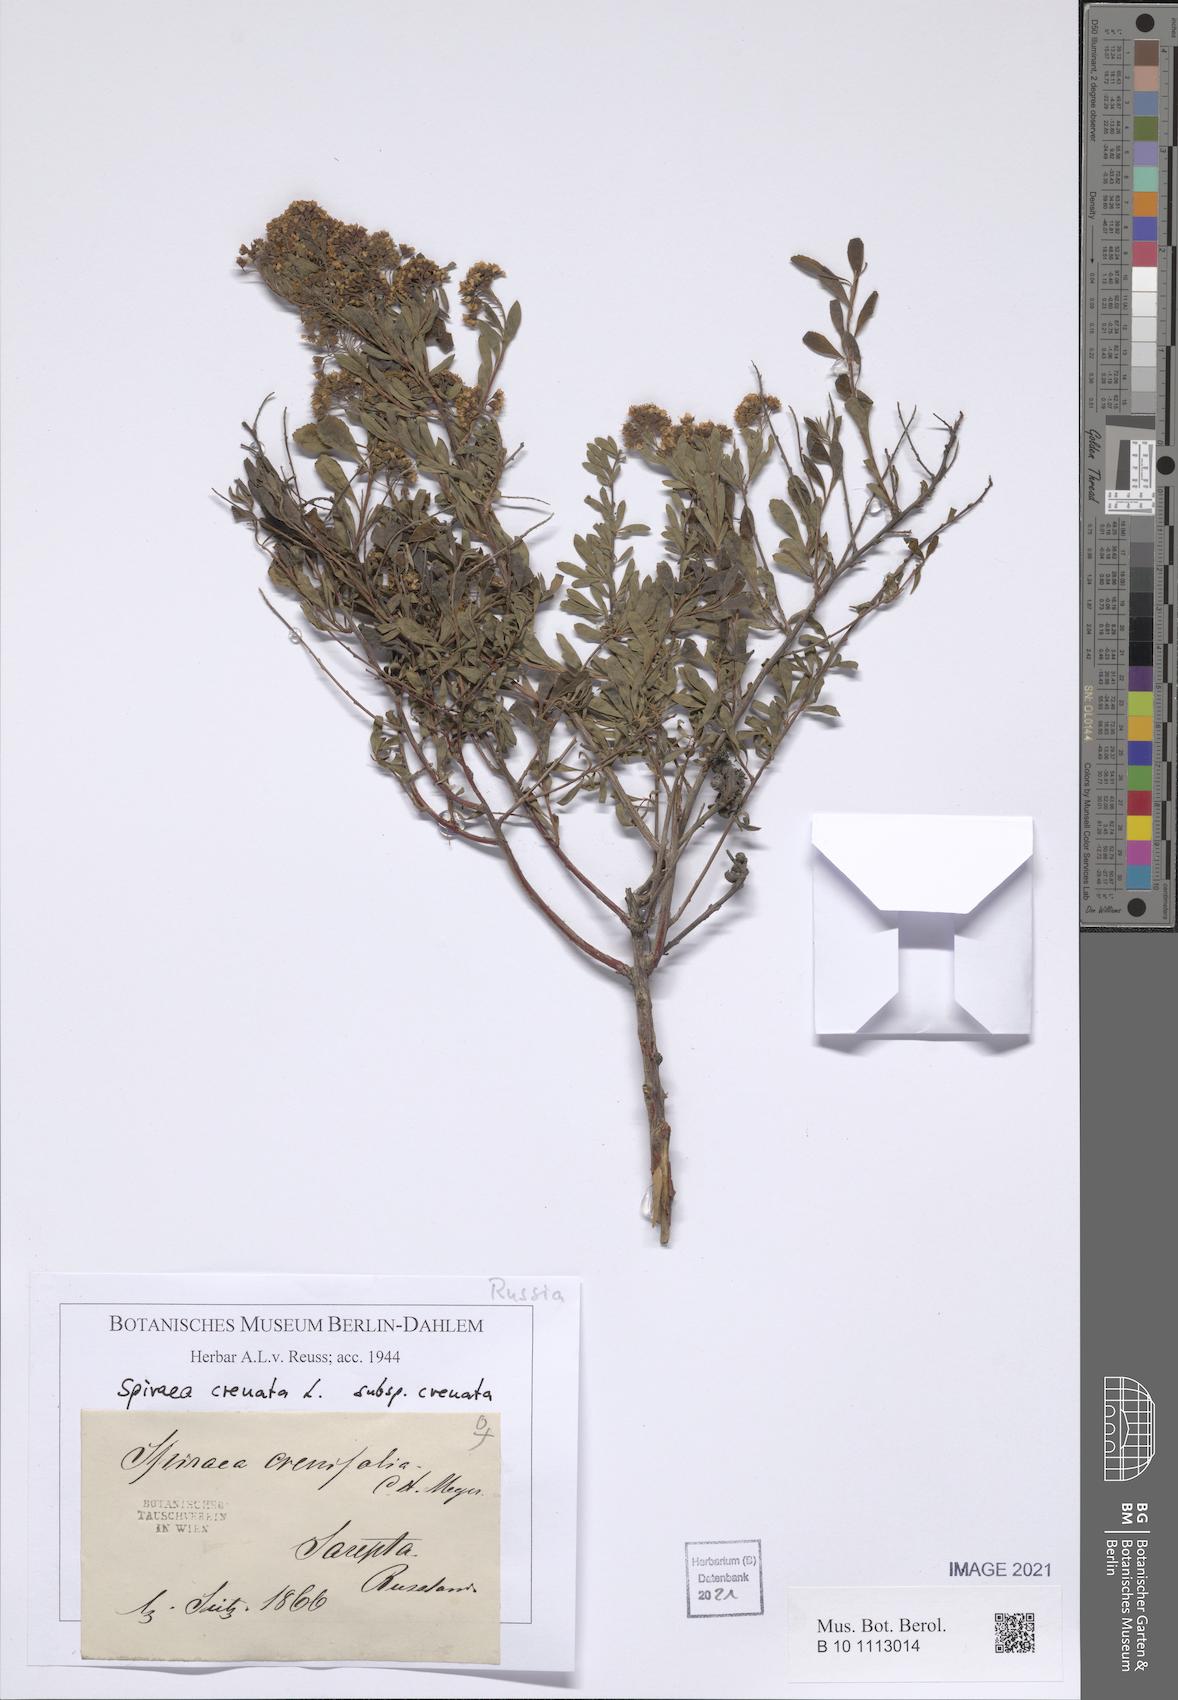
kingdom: Plantae
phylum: Tracheophyta
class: Magnoliopsida
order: Rosales
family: Rosaceae
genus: Spiraea
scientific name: Spiraea crenata
